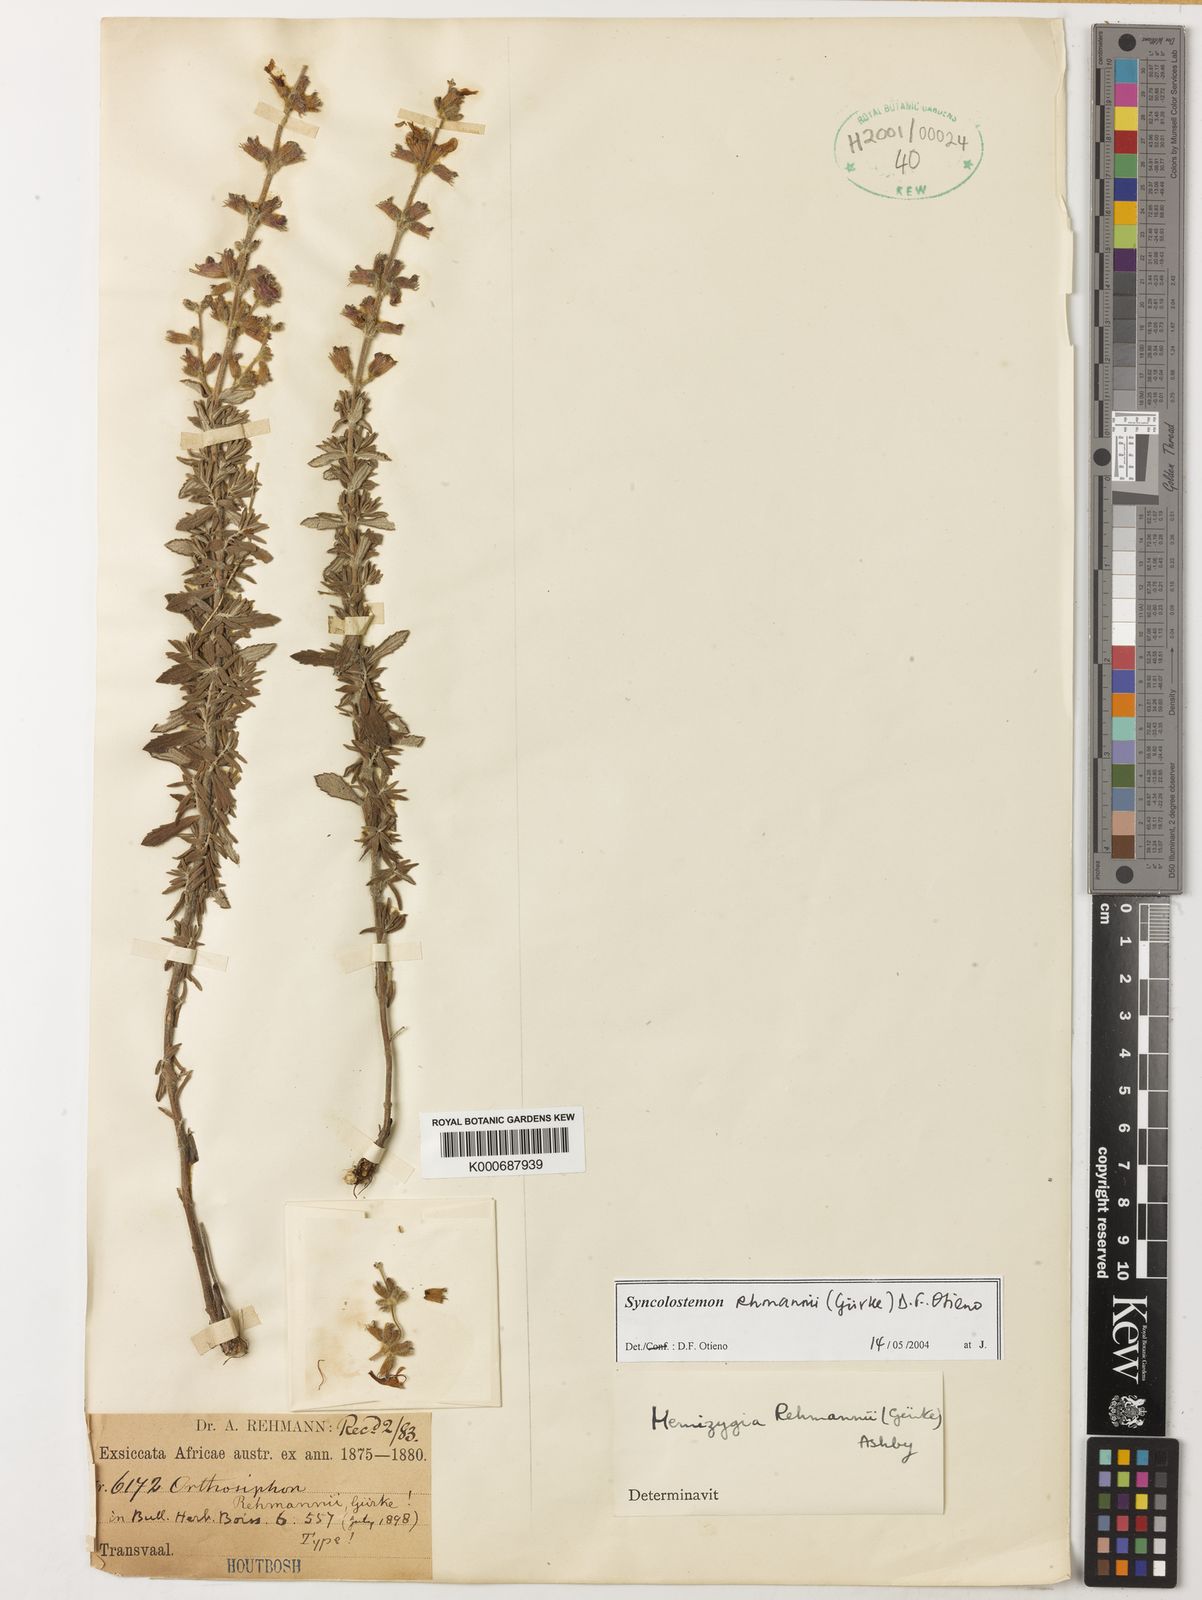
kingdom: Plantae
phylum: Tracheophyta
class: Magnoliopsida
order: Lamiales
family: Lamiaceae
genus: Syncolostemon
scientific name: Syncolostemon rehmannii
